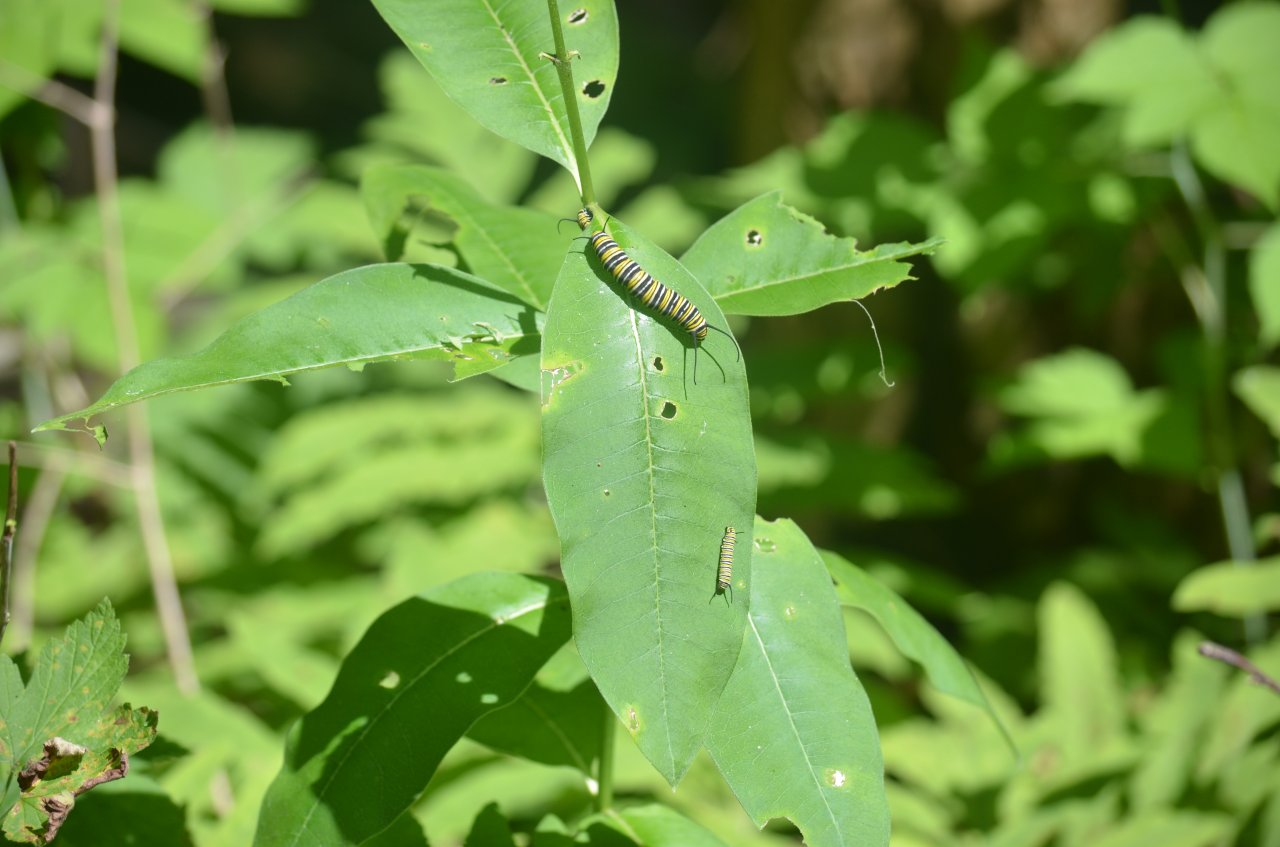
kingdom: Animalia
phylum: Arthropoda
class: Insecta
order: Lepidoptera
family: Nymphalidae
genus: Danaus
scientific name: Danaus plexippus
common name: Monarch
